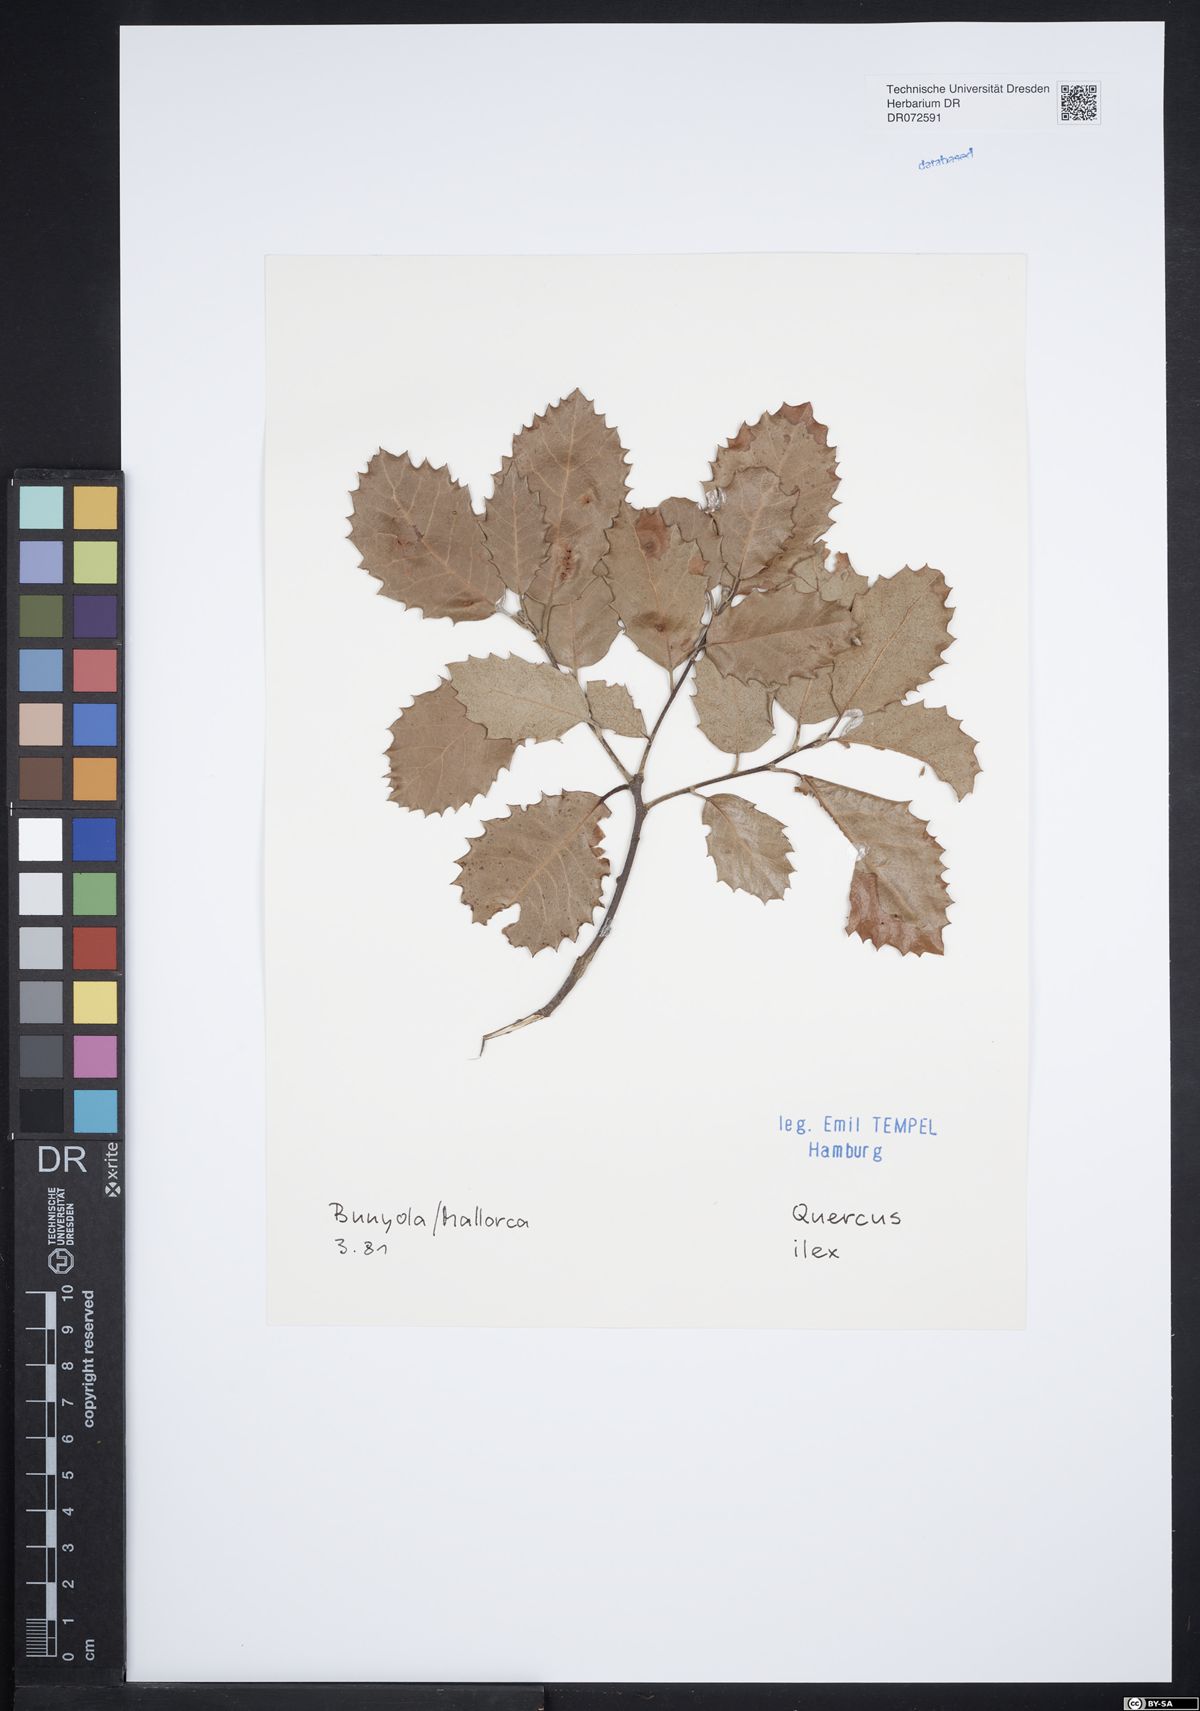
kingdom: Plantae
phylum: Tracheophyta
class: Magnoliopsida
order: Fagales
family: Fagaceae
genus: Quercus
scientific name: Quercus ilex
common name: Evergreen oak
